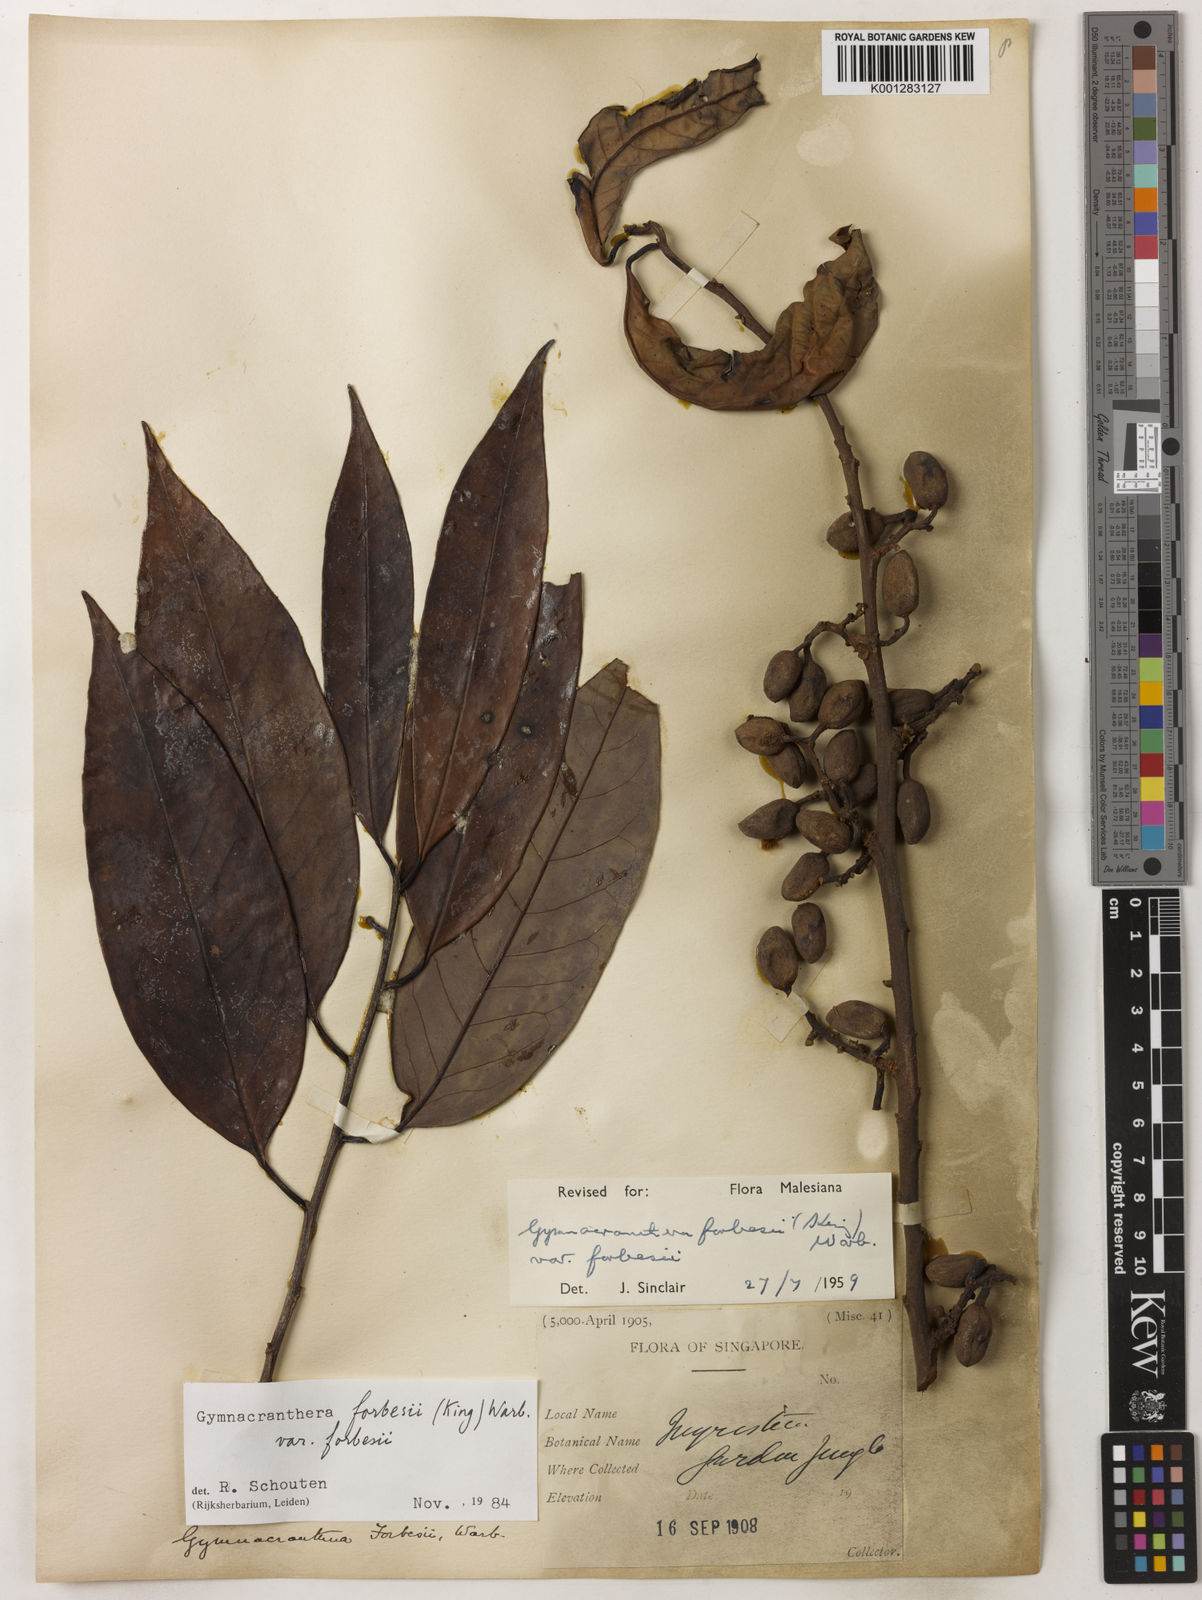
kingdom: Plantae
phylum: Tracheophyta
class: Magnoliopsida
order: Magnoliales
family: Myristicaceae
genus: Gymnacranthera
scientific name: Gymnacranthera forbesii
